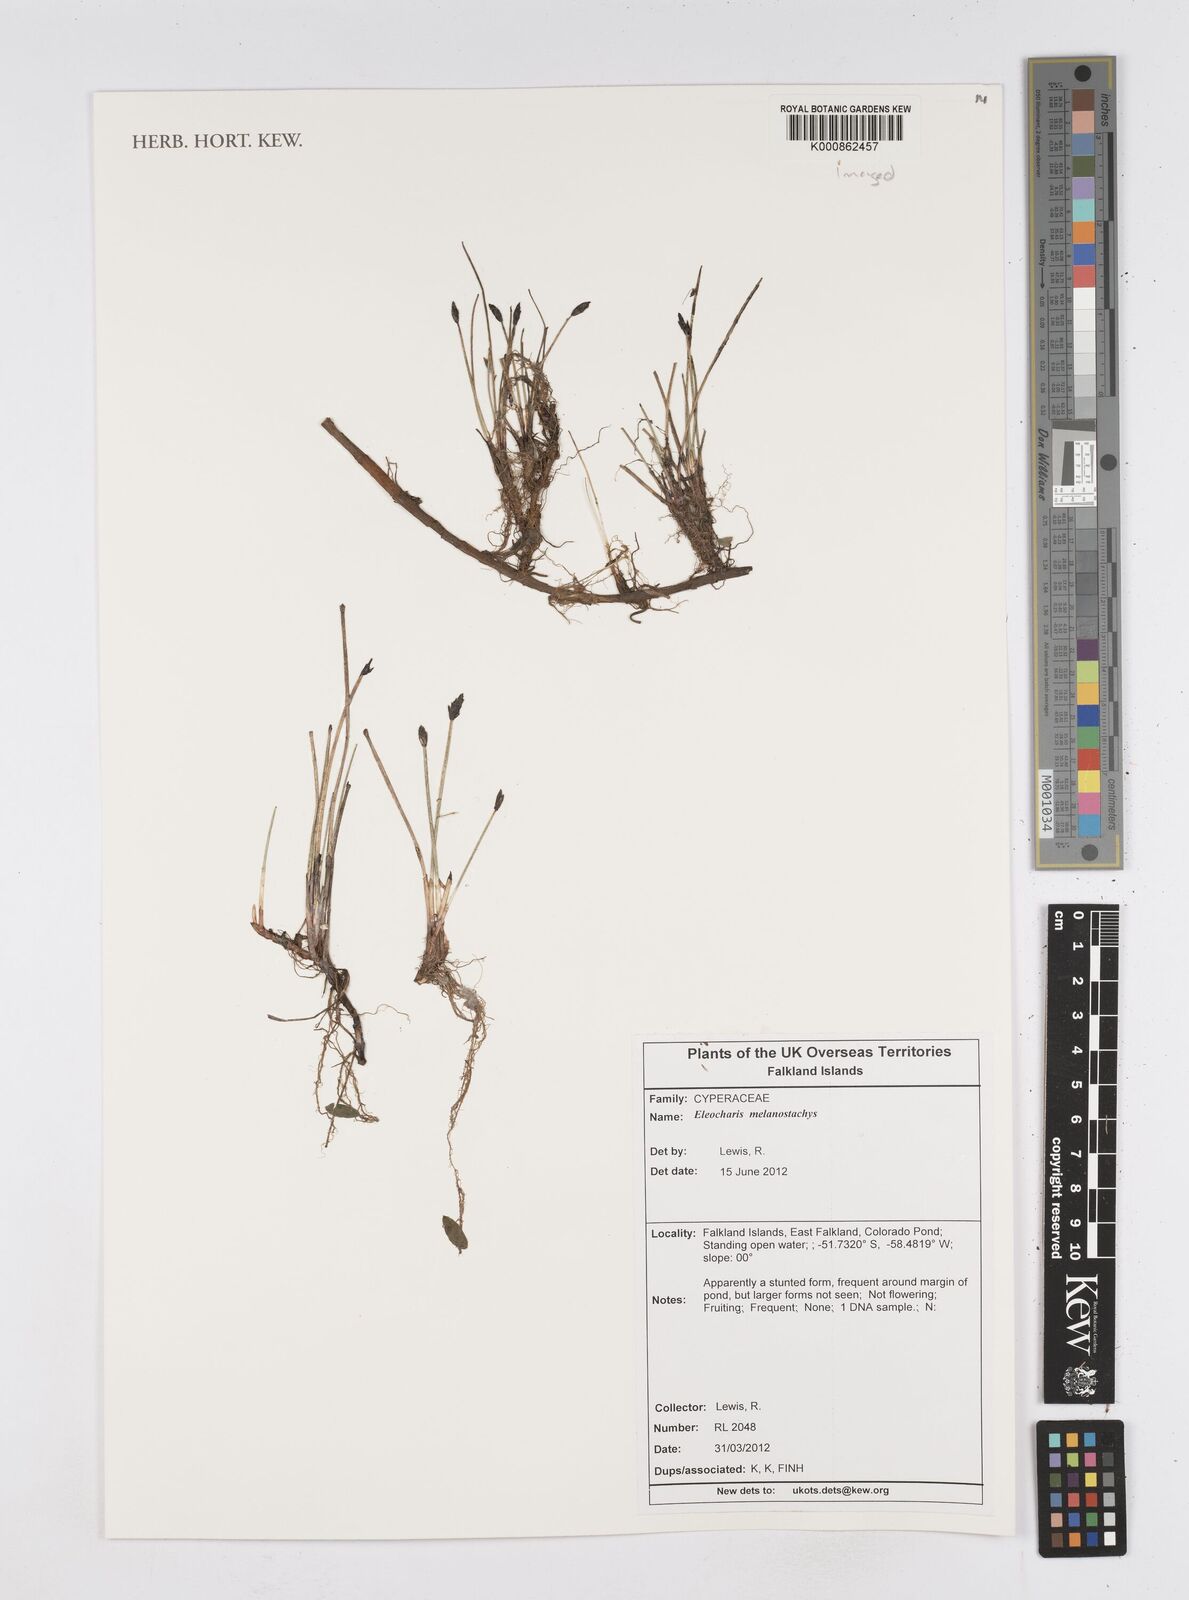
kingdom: Plantae
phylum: Tracheophyta
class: Liliopsida
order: Poales
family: Cyperaceae
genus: Eleocharis
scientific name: Eleocharis melanostachys
